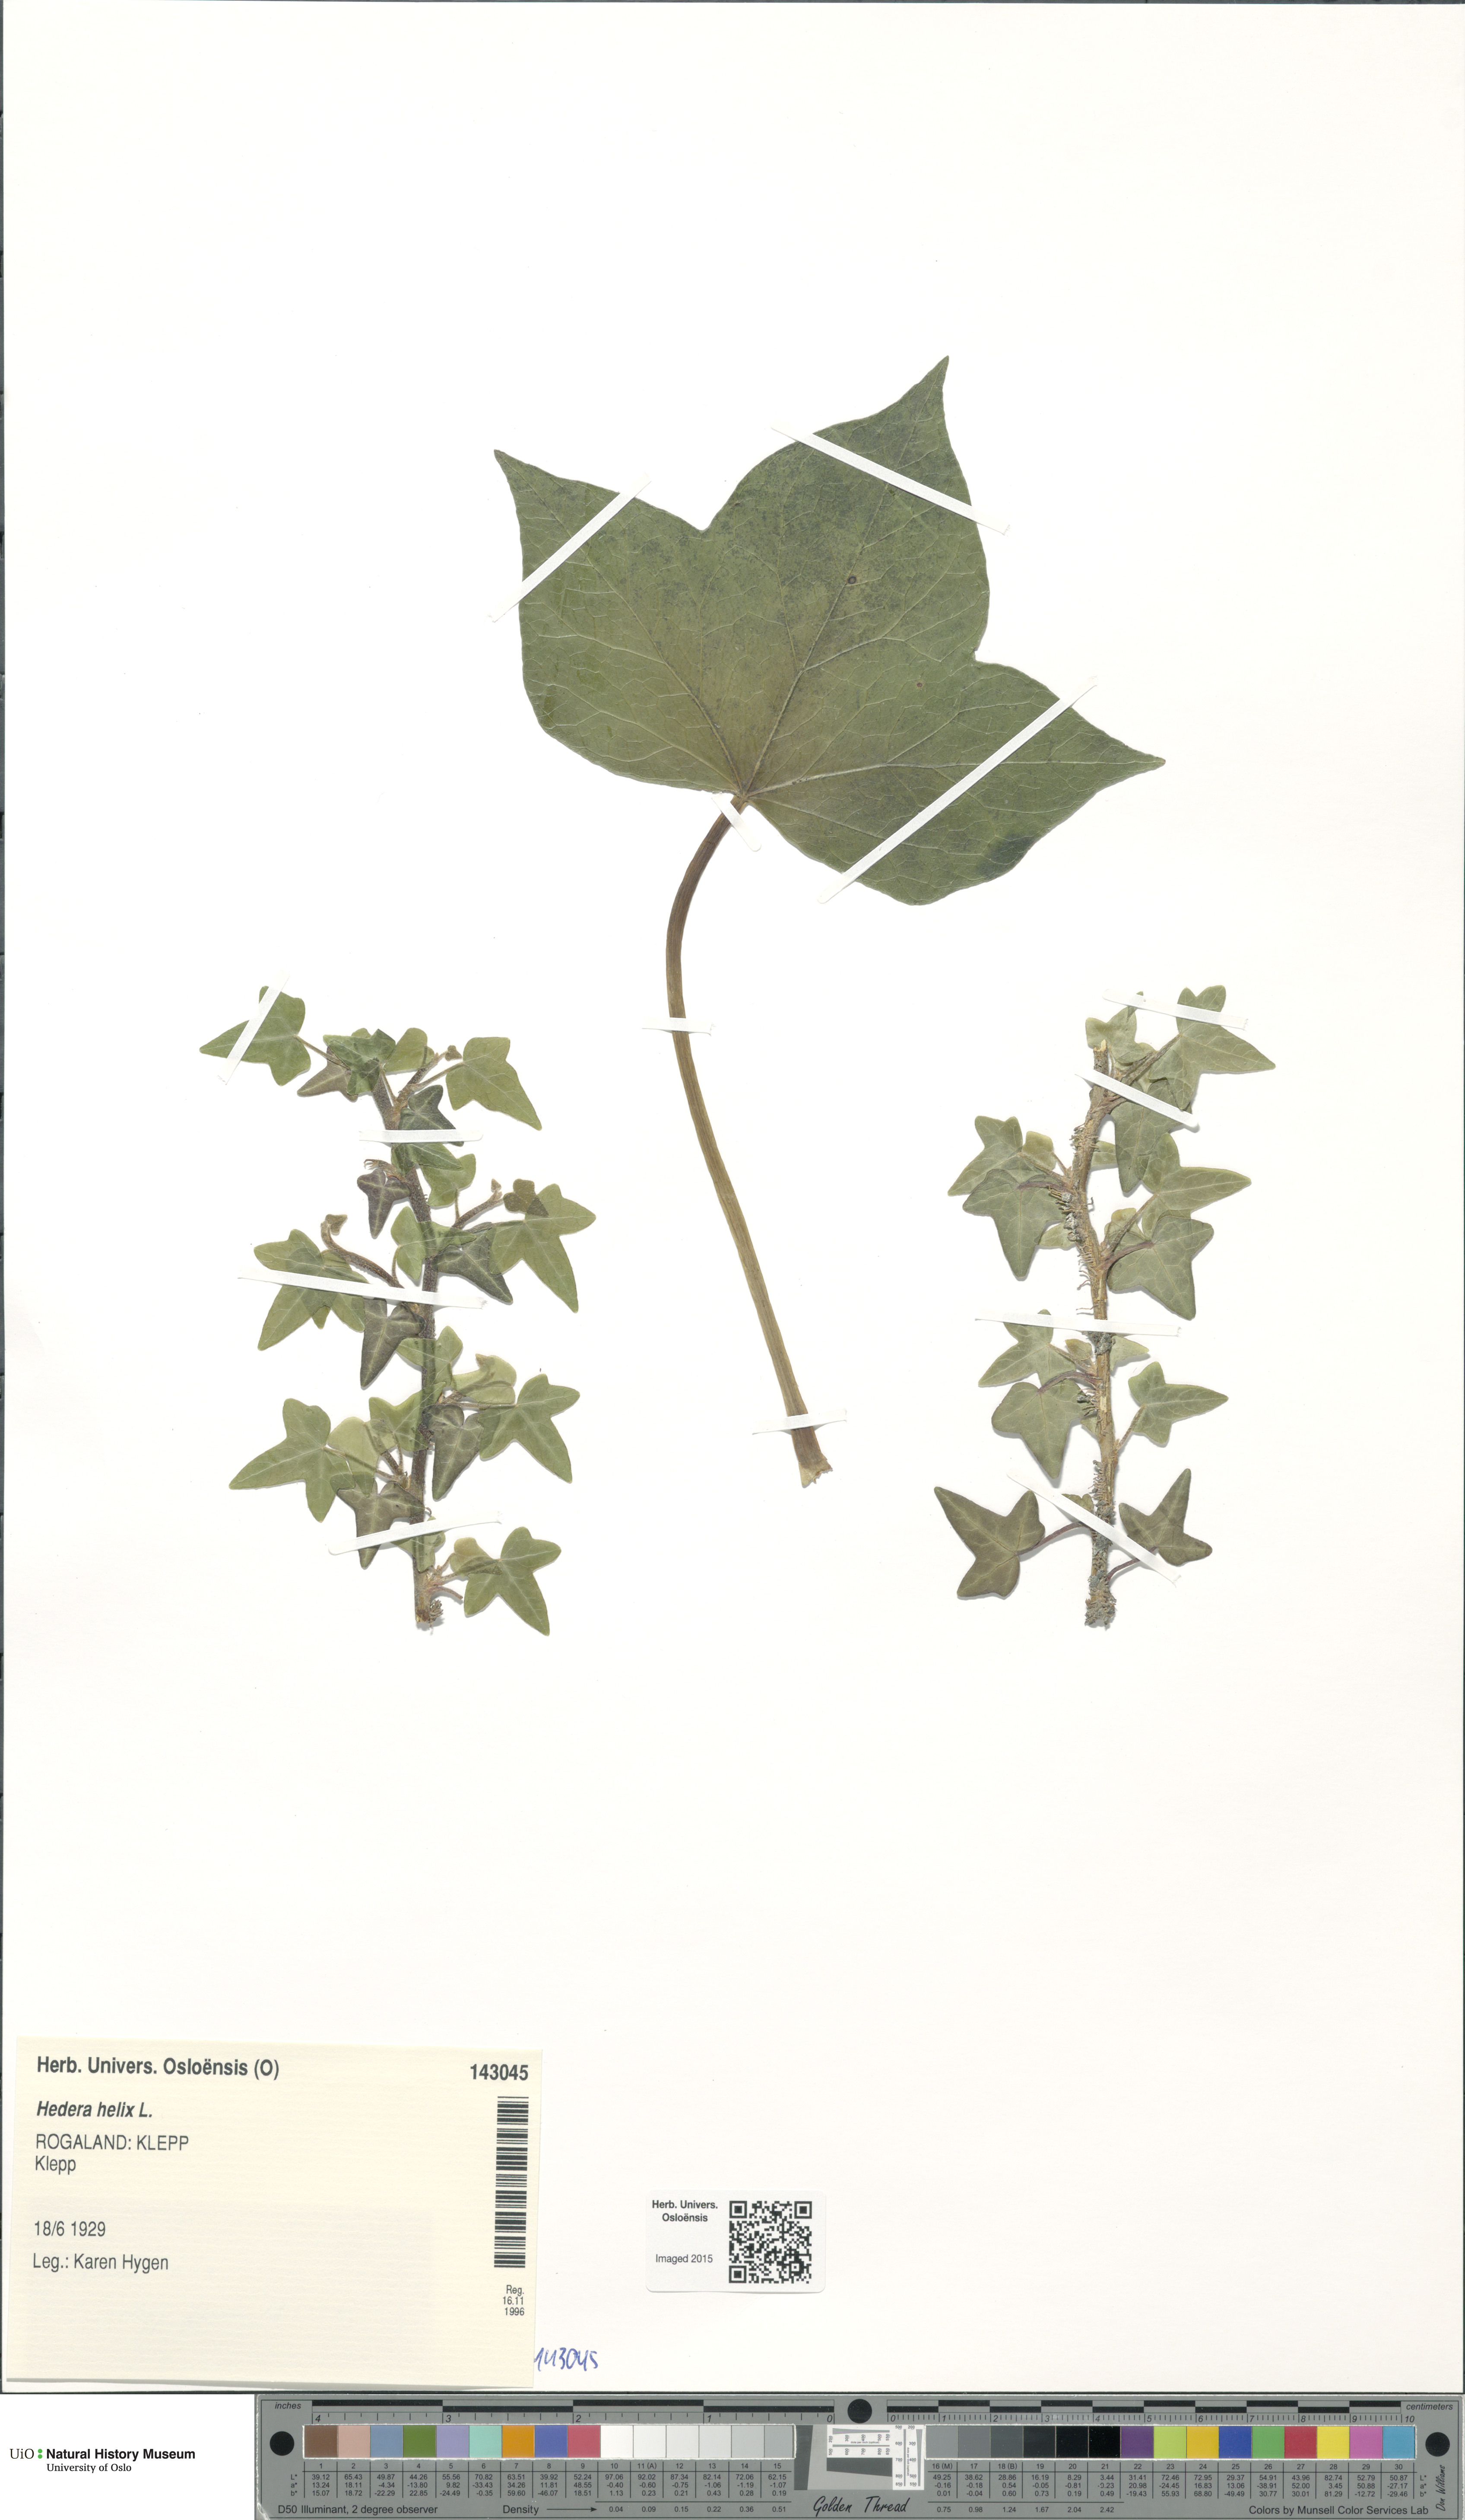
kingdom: Plantae
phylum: Tracheophyta
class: Magnoliopsida
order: Apiales
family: Araliaceae
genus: Hedera
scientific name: Hedera helix
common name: Ivy
